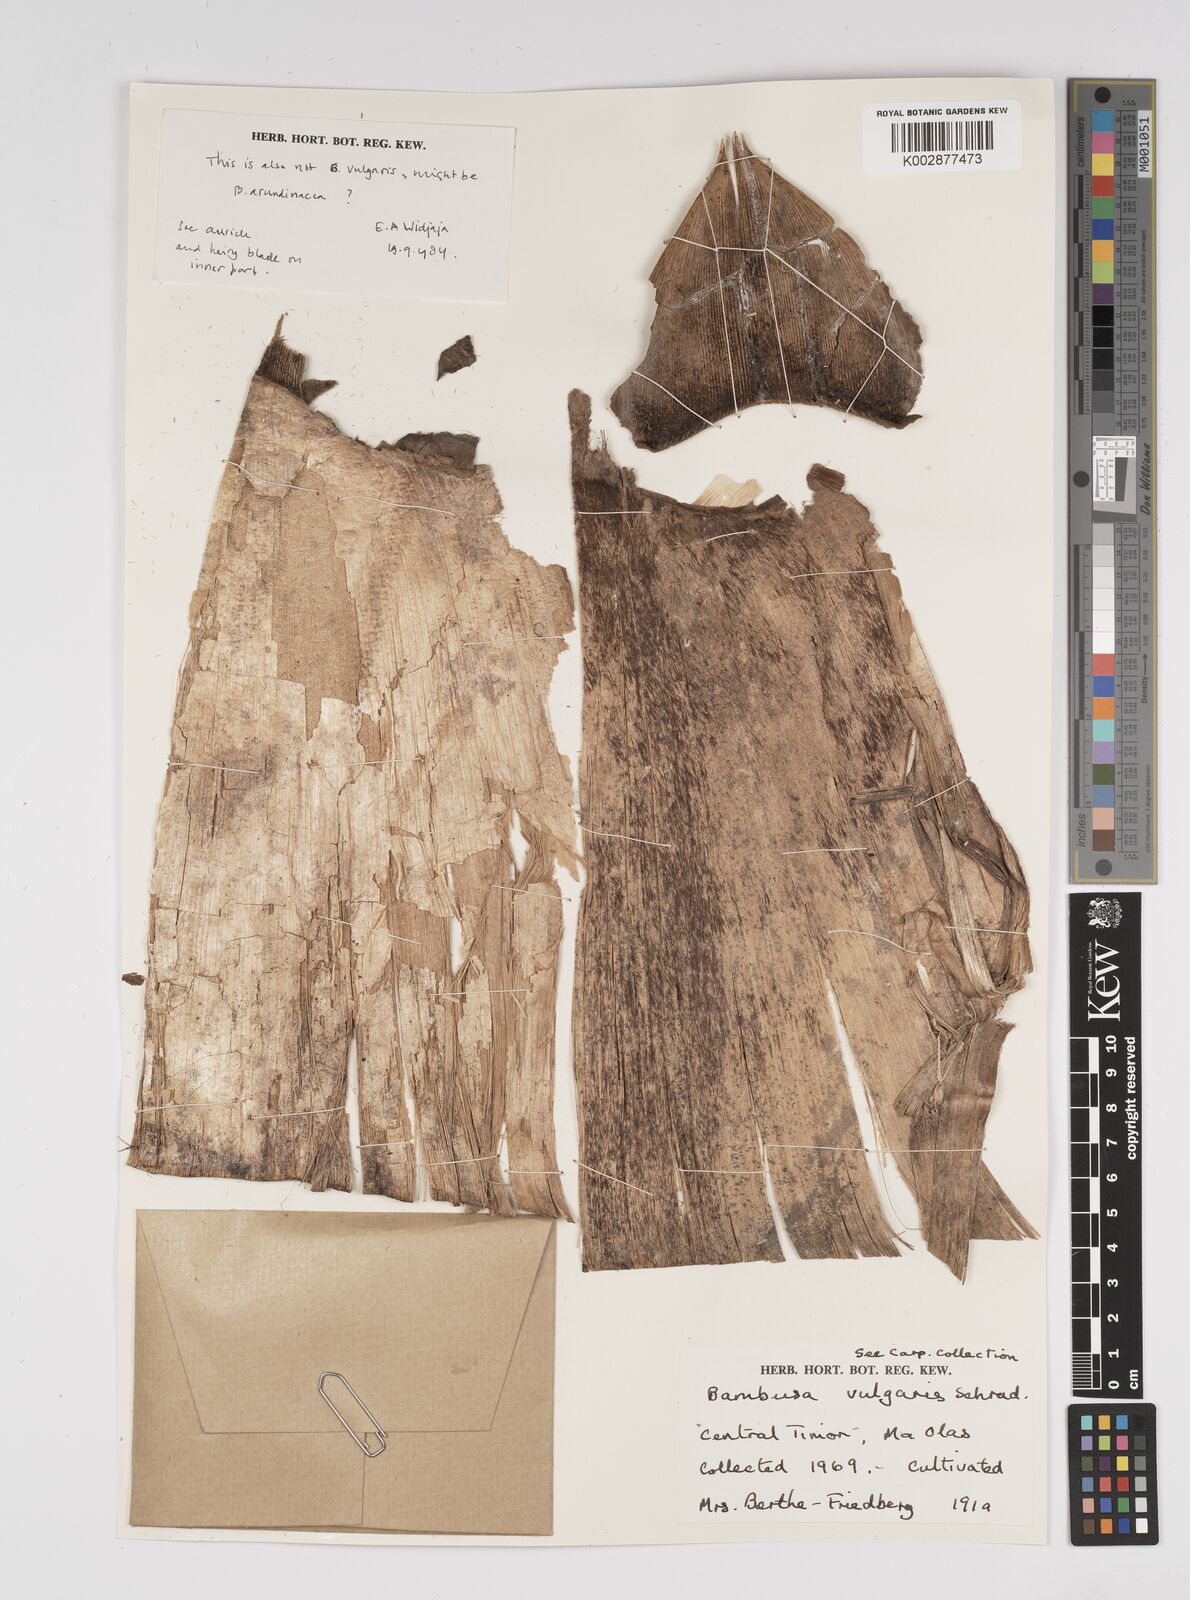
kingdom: Plantae
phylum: Tracheophyta
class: Liliopsida
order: Poales
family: Poaceae
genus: Bambusa
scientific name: Bambusa vulgaris
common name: Common bamboo
